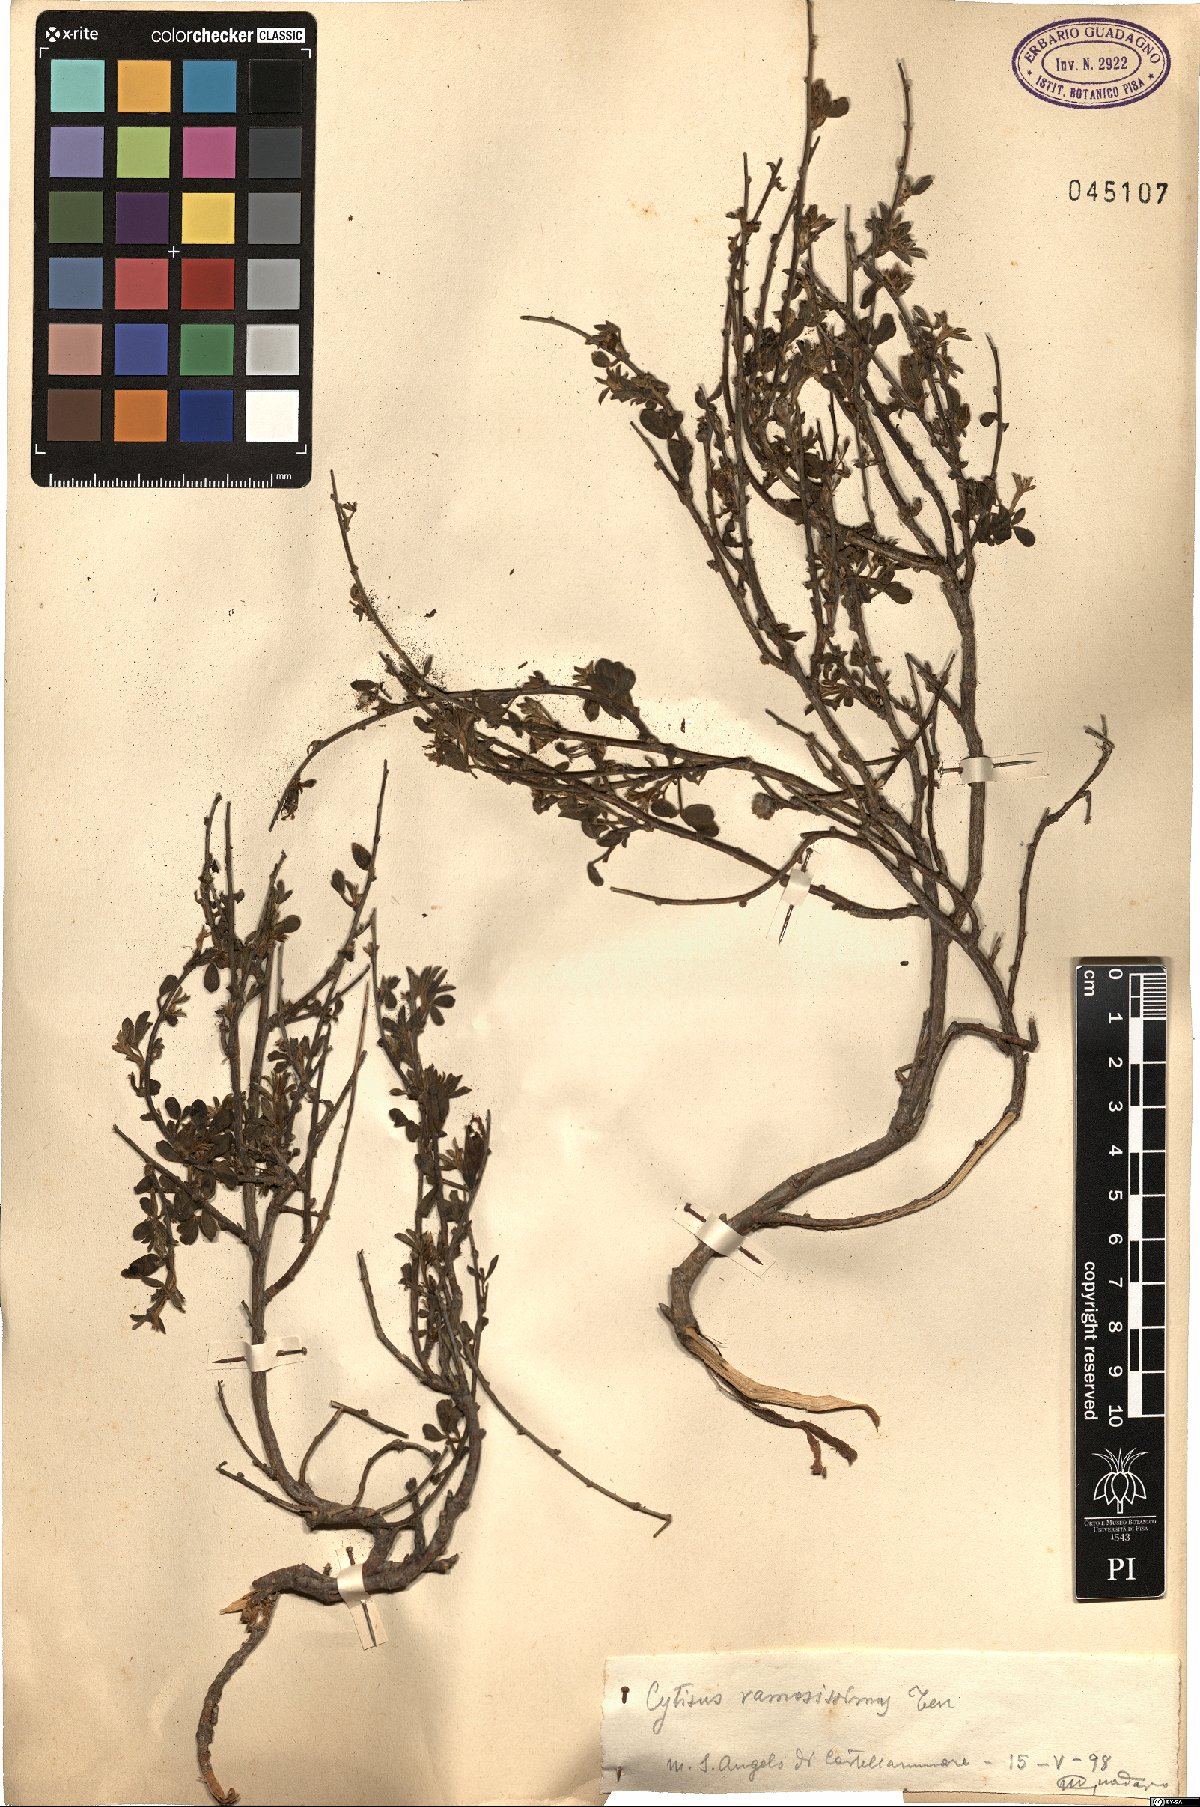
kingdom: Plantae
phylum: Tracheophyta
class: Magnoliopsida
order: Fabales
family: Fabaceae
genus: Chamaecytisus
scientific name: Chamaecytisus spinescens
